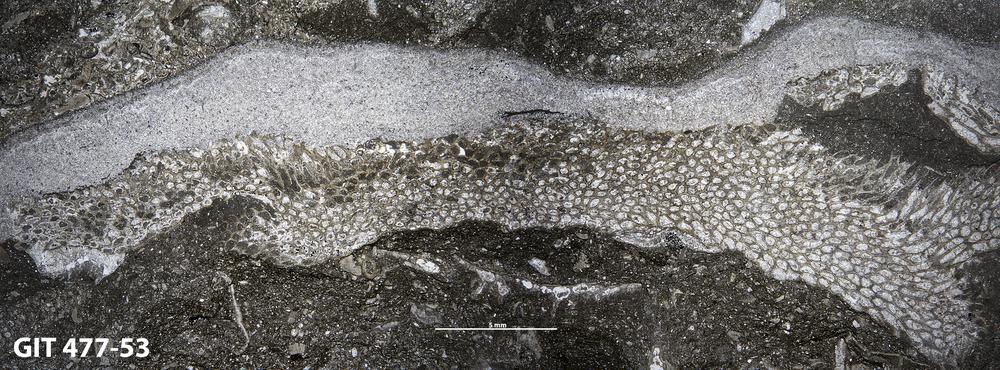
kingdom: Animalia
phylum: Porifera
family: Stromatoporidae
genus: Eostromatopora
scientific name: Eostromatopora
